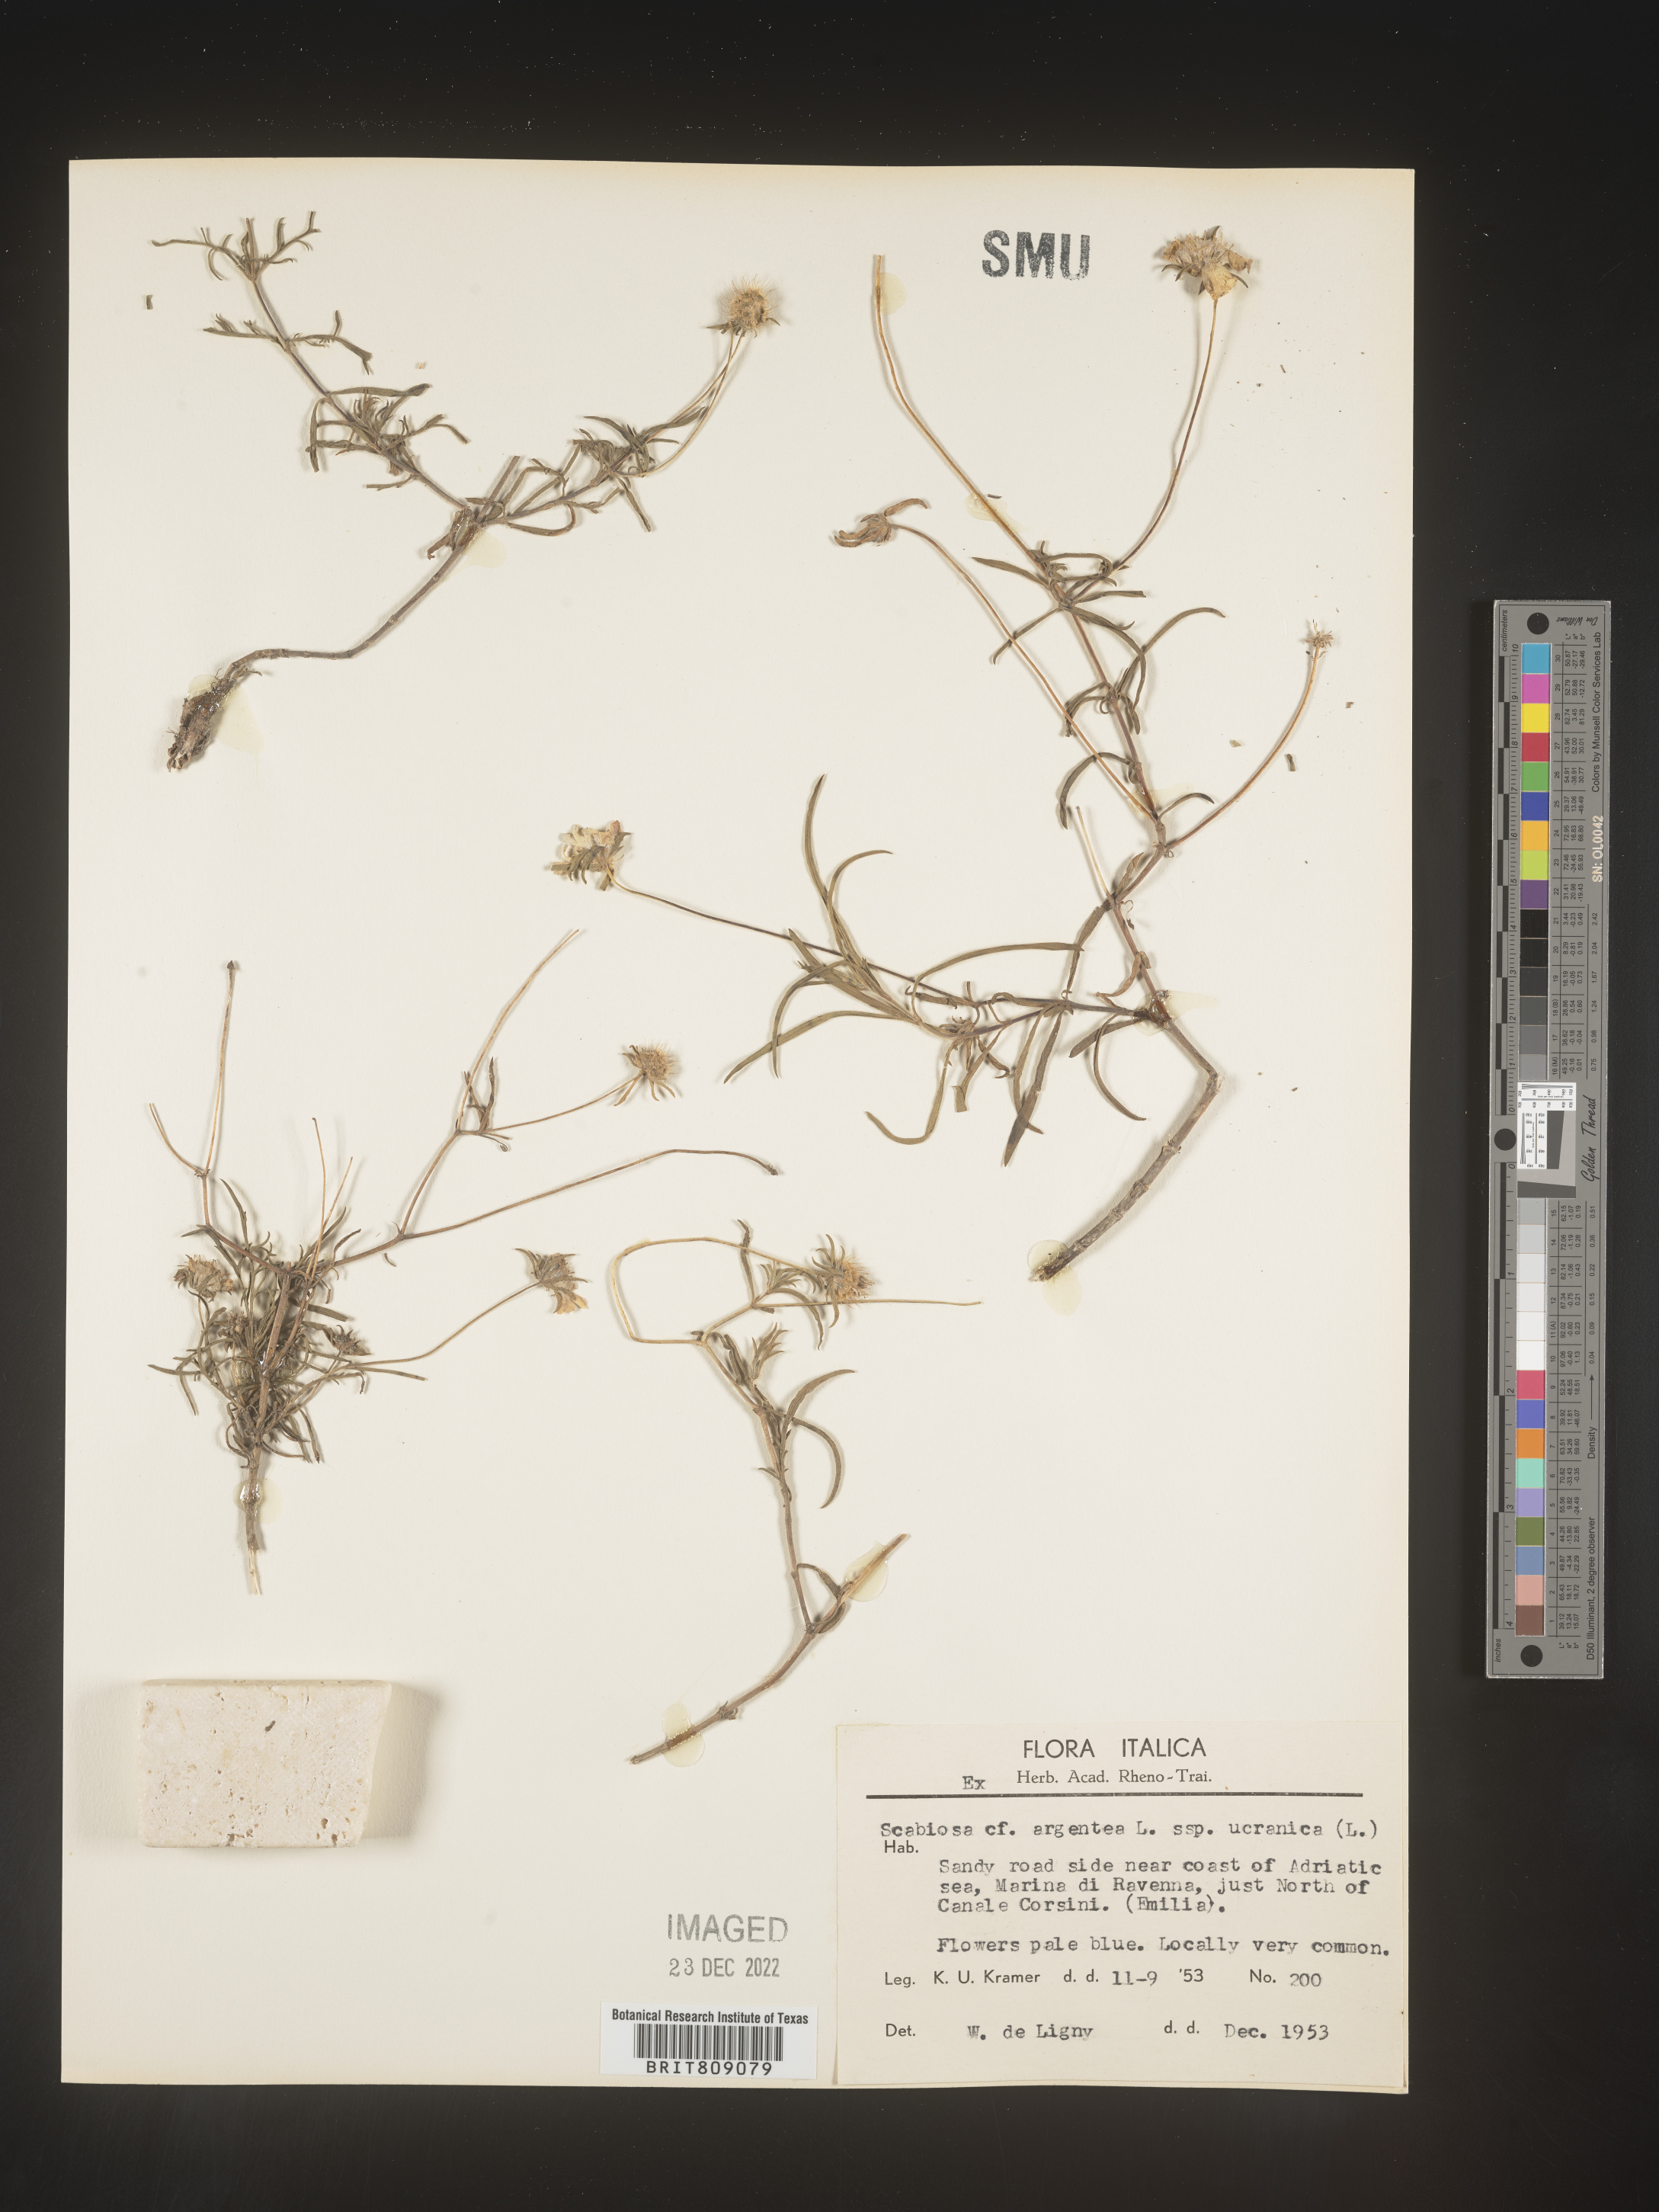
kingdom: Plantae
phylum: Tracheophyta
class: Magnoliopsida
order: Dipsacales
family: Caprifoliaceae
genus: Scabiosa
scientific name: Scabiosa
